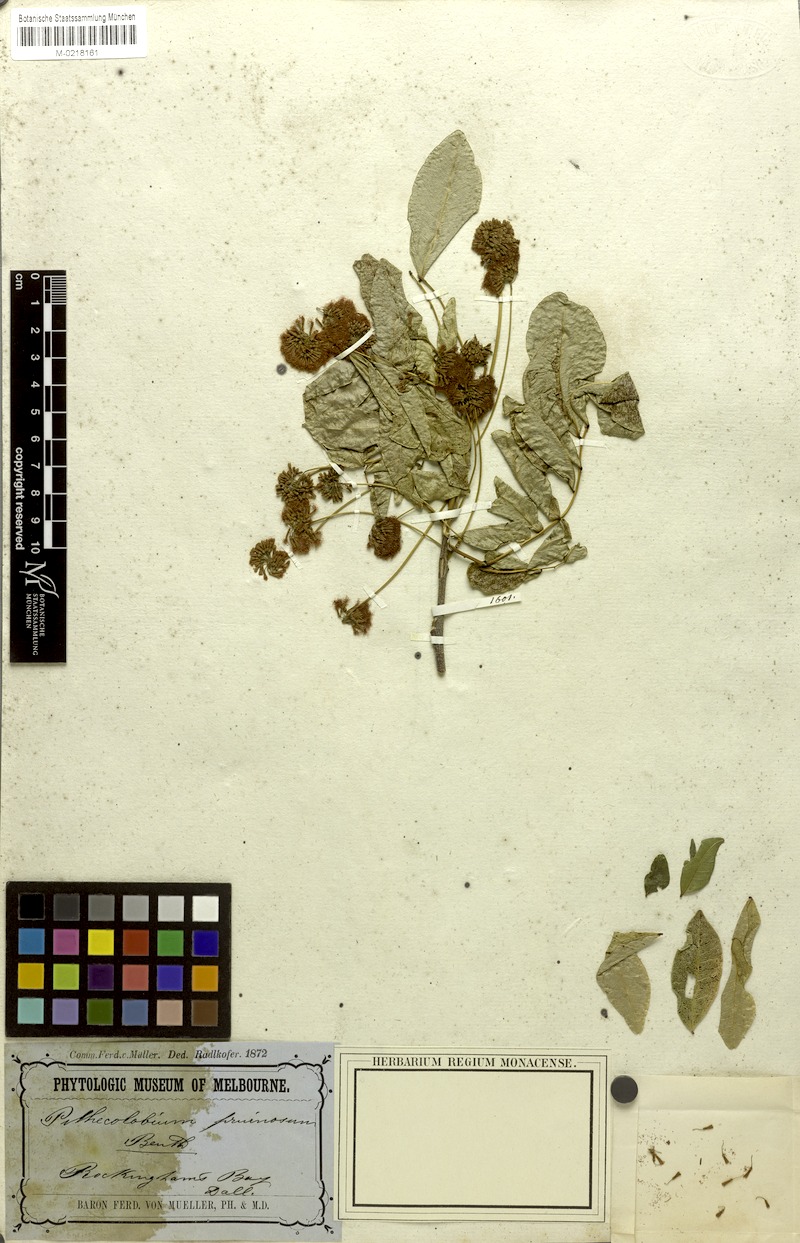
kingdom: Plantae
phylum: Tracheophyta
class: Magnoliopsida
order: Fabales
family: Fabaceae
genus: Pararchidendron
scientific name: Pararchidendron pruinosum
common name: Tulip siris
